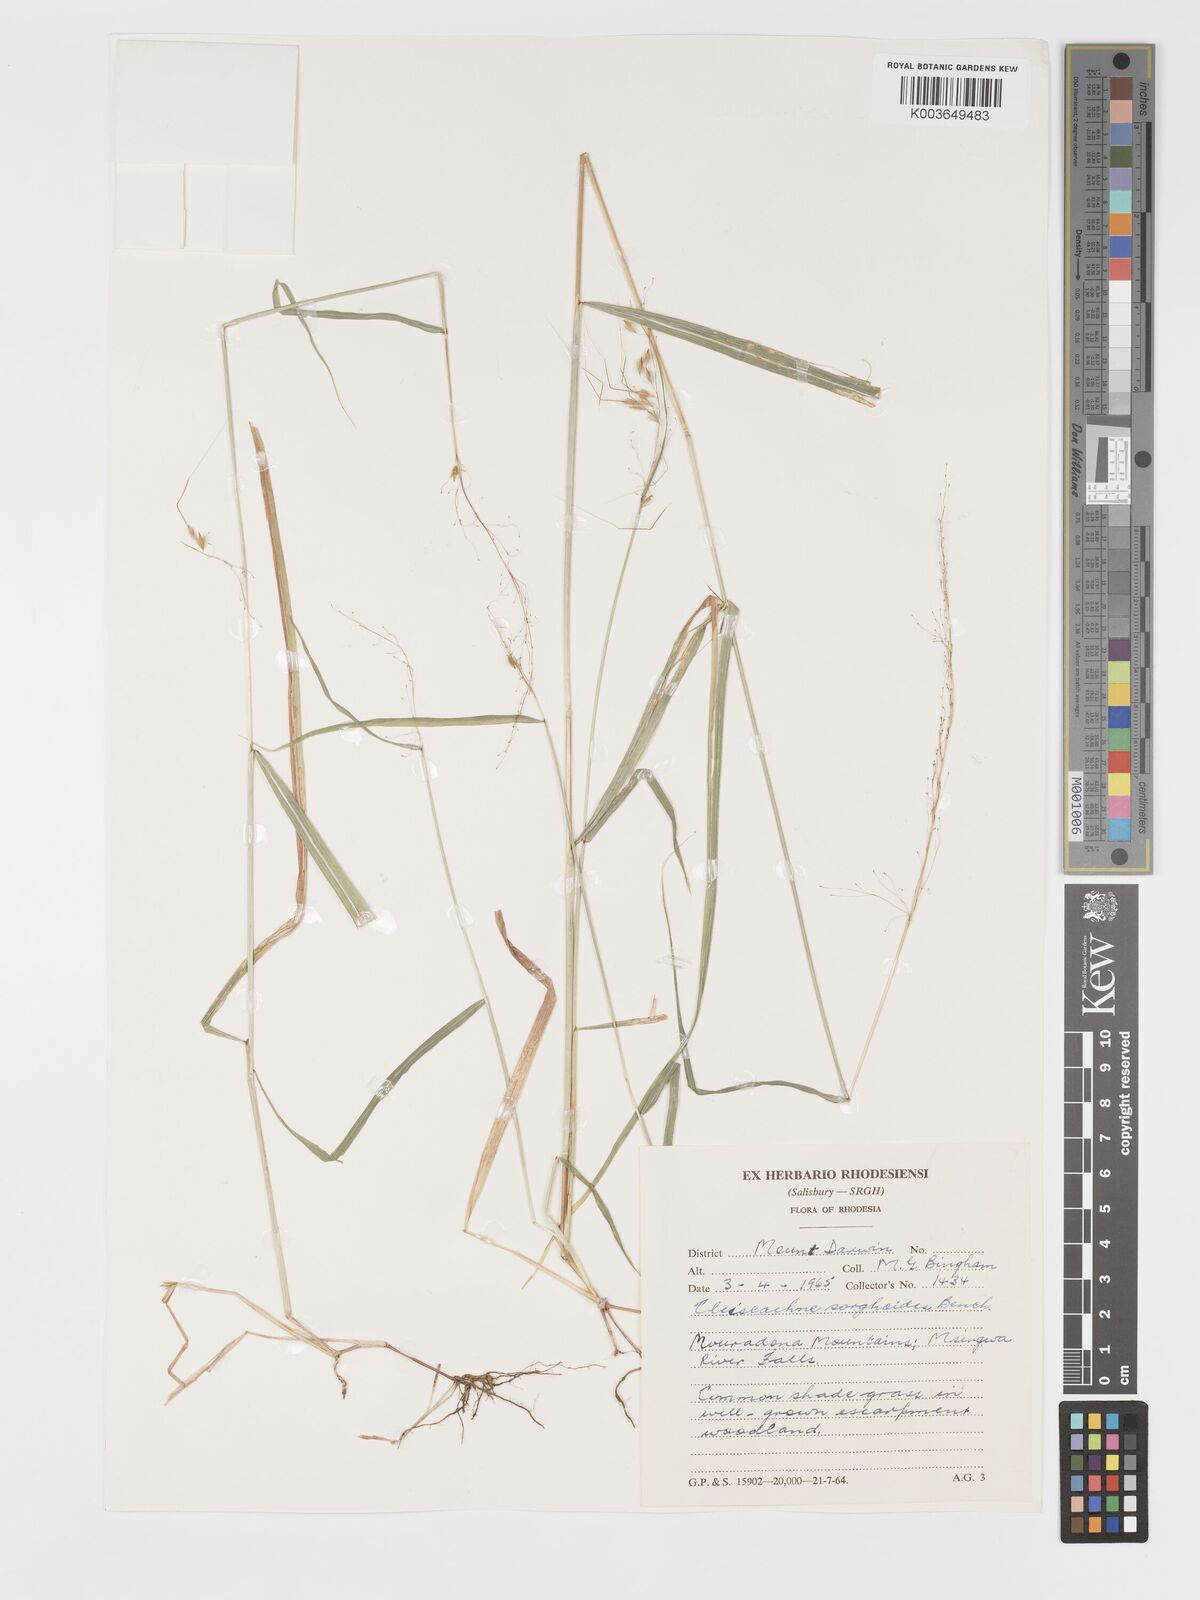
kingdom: Plantae
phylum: Tracheophyta
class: Liliopsida
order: Poales
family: Poaceae
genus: Sorghastrum
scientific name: Sorghastrum incompletum
